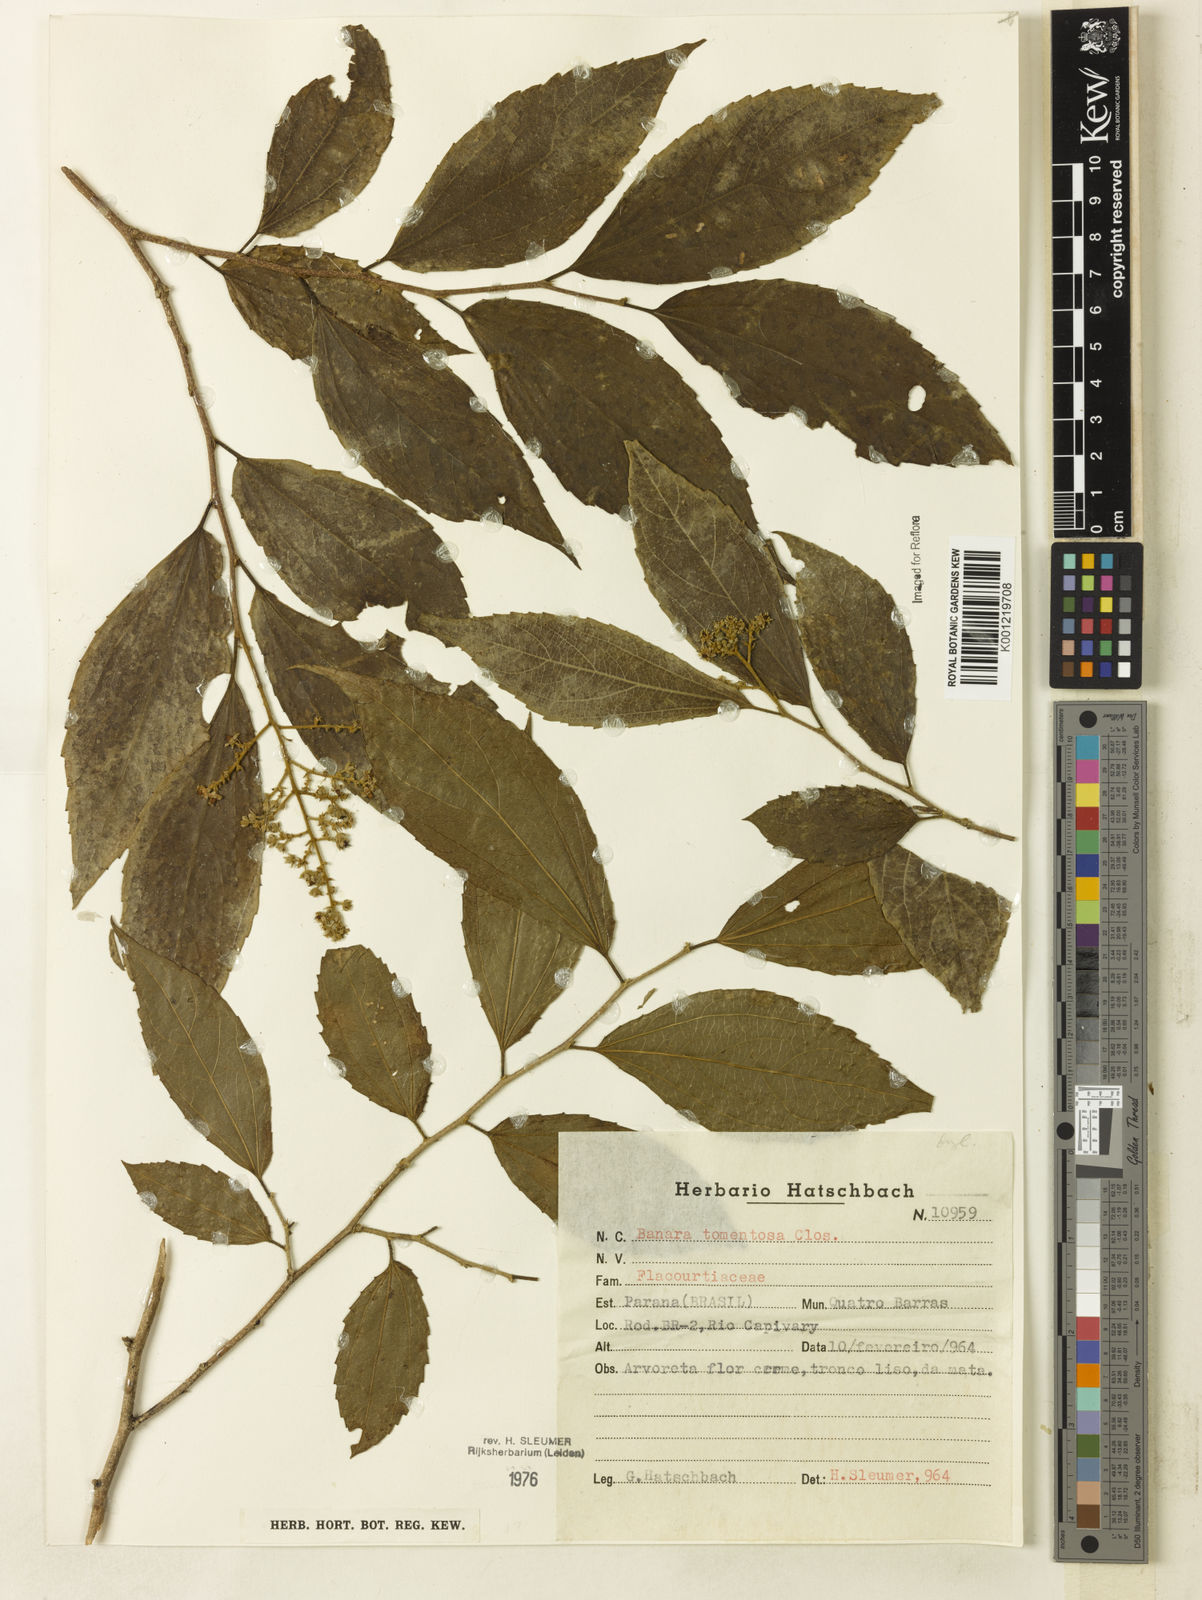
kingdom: Plantae
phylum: Tracheophyta
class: Magnoliopsida
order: Malpighiales
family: Salicaceae
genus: Banara
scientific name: Banara tomentosa
